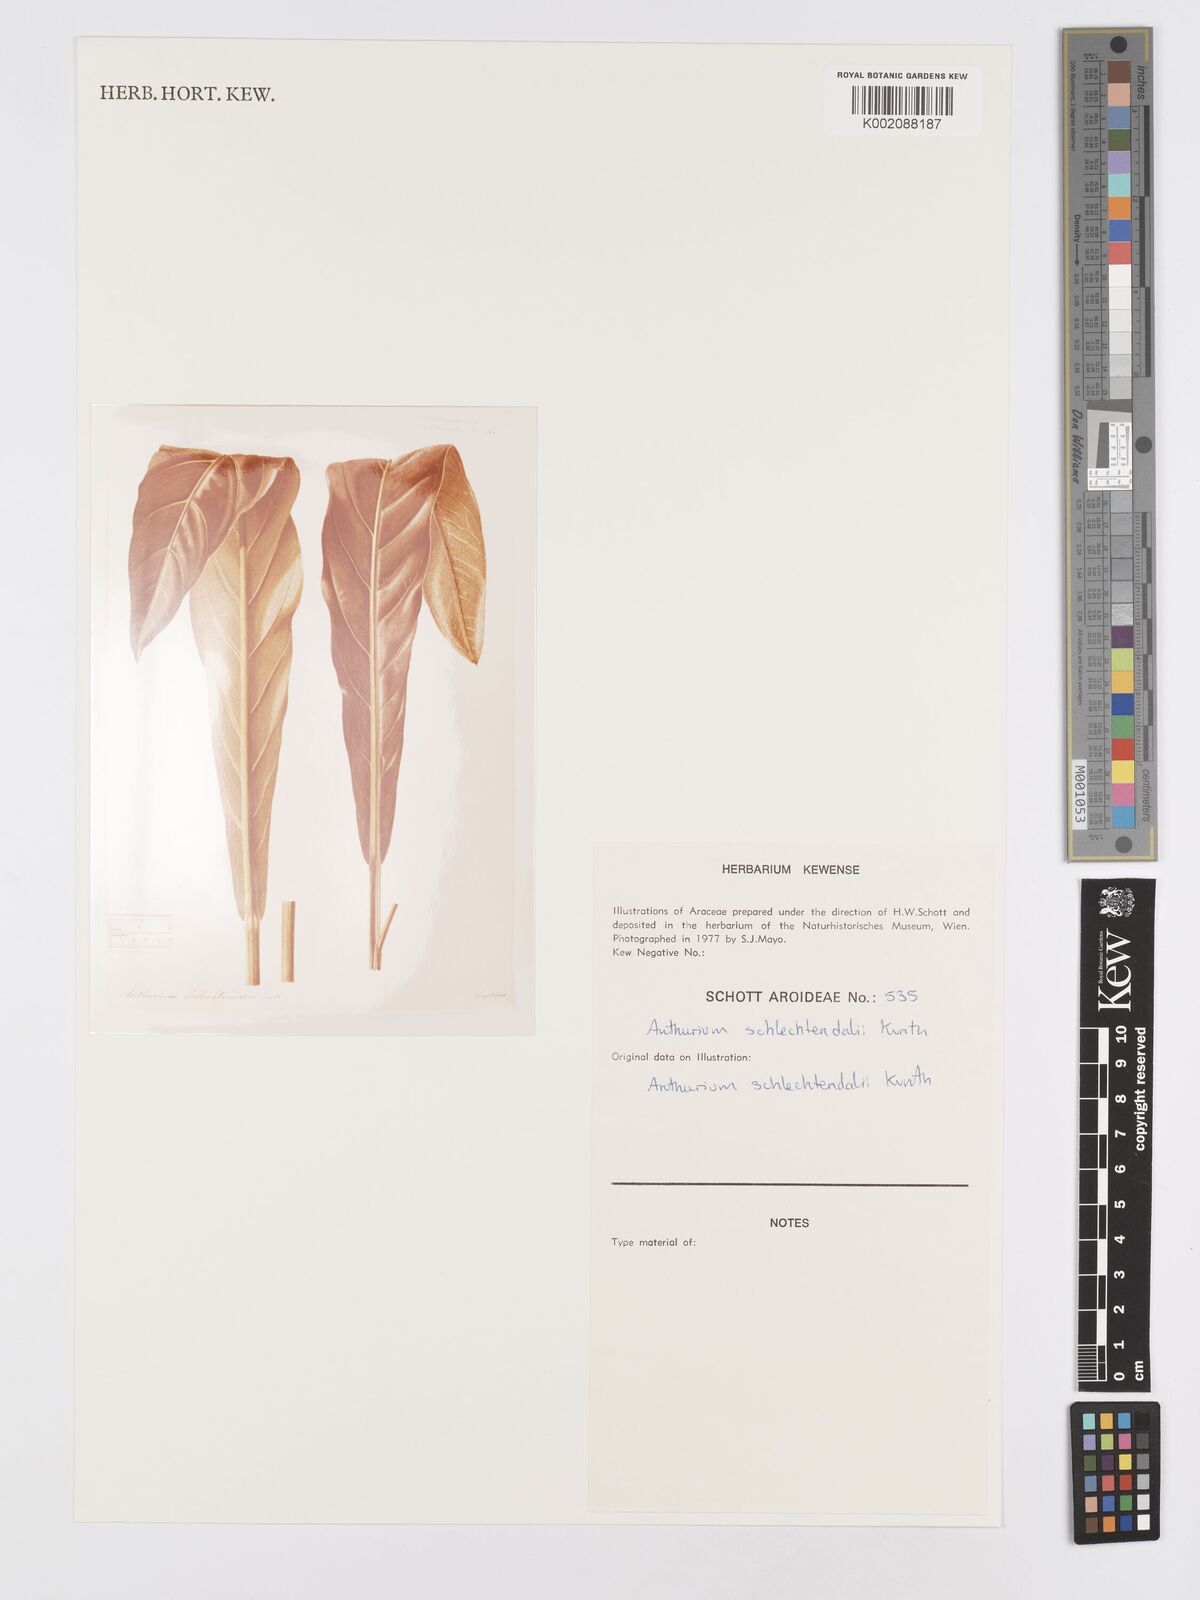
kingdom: Plantae
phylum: Tracheophyta
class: Liliopsida
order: Alismatales
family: Araceae
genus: Anthurium
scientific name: Anthurium schlechtendalii
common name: Laceleaf
